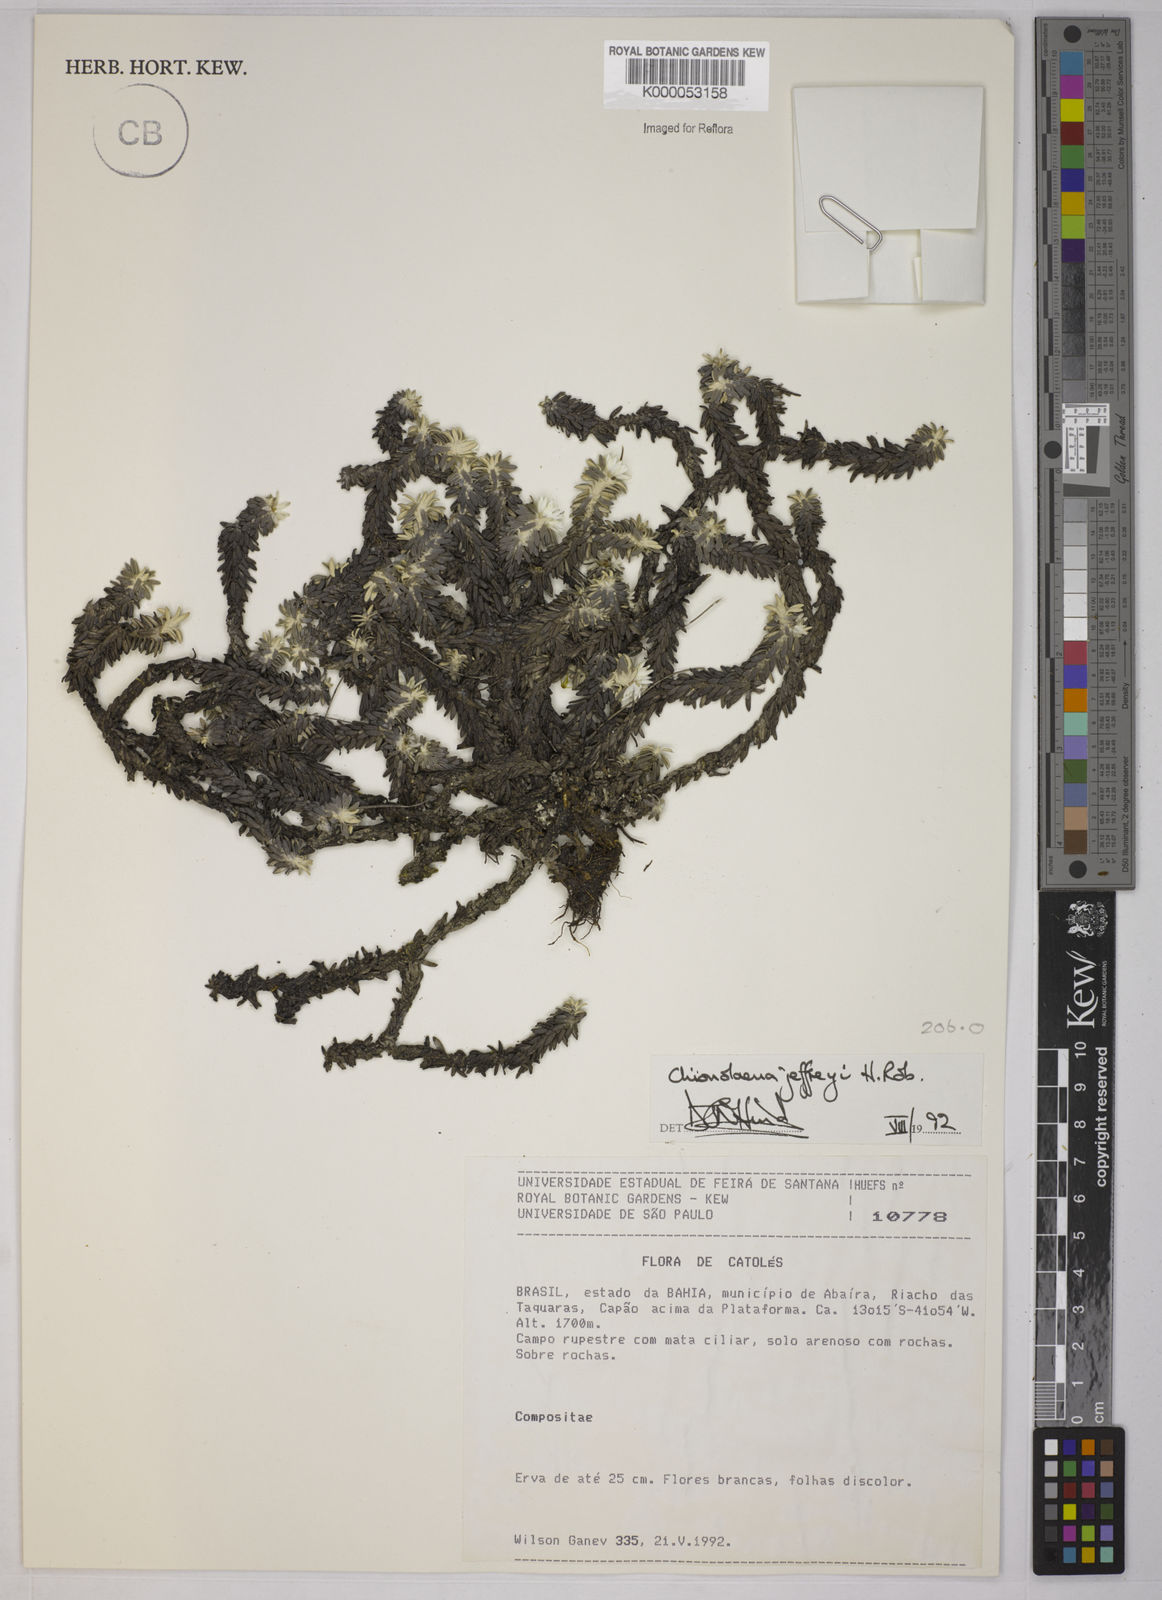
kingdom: Plantae
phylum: Tracheophyta
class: Magnoliopsida
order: Asterales
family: Asteraceae
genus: Chionolaena
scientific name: Chionolaena jeffreyi
